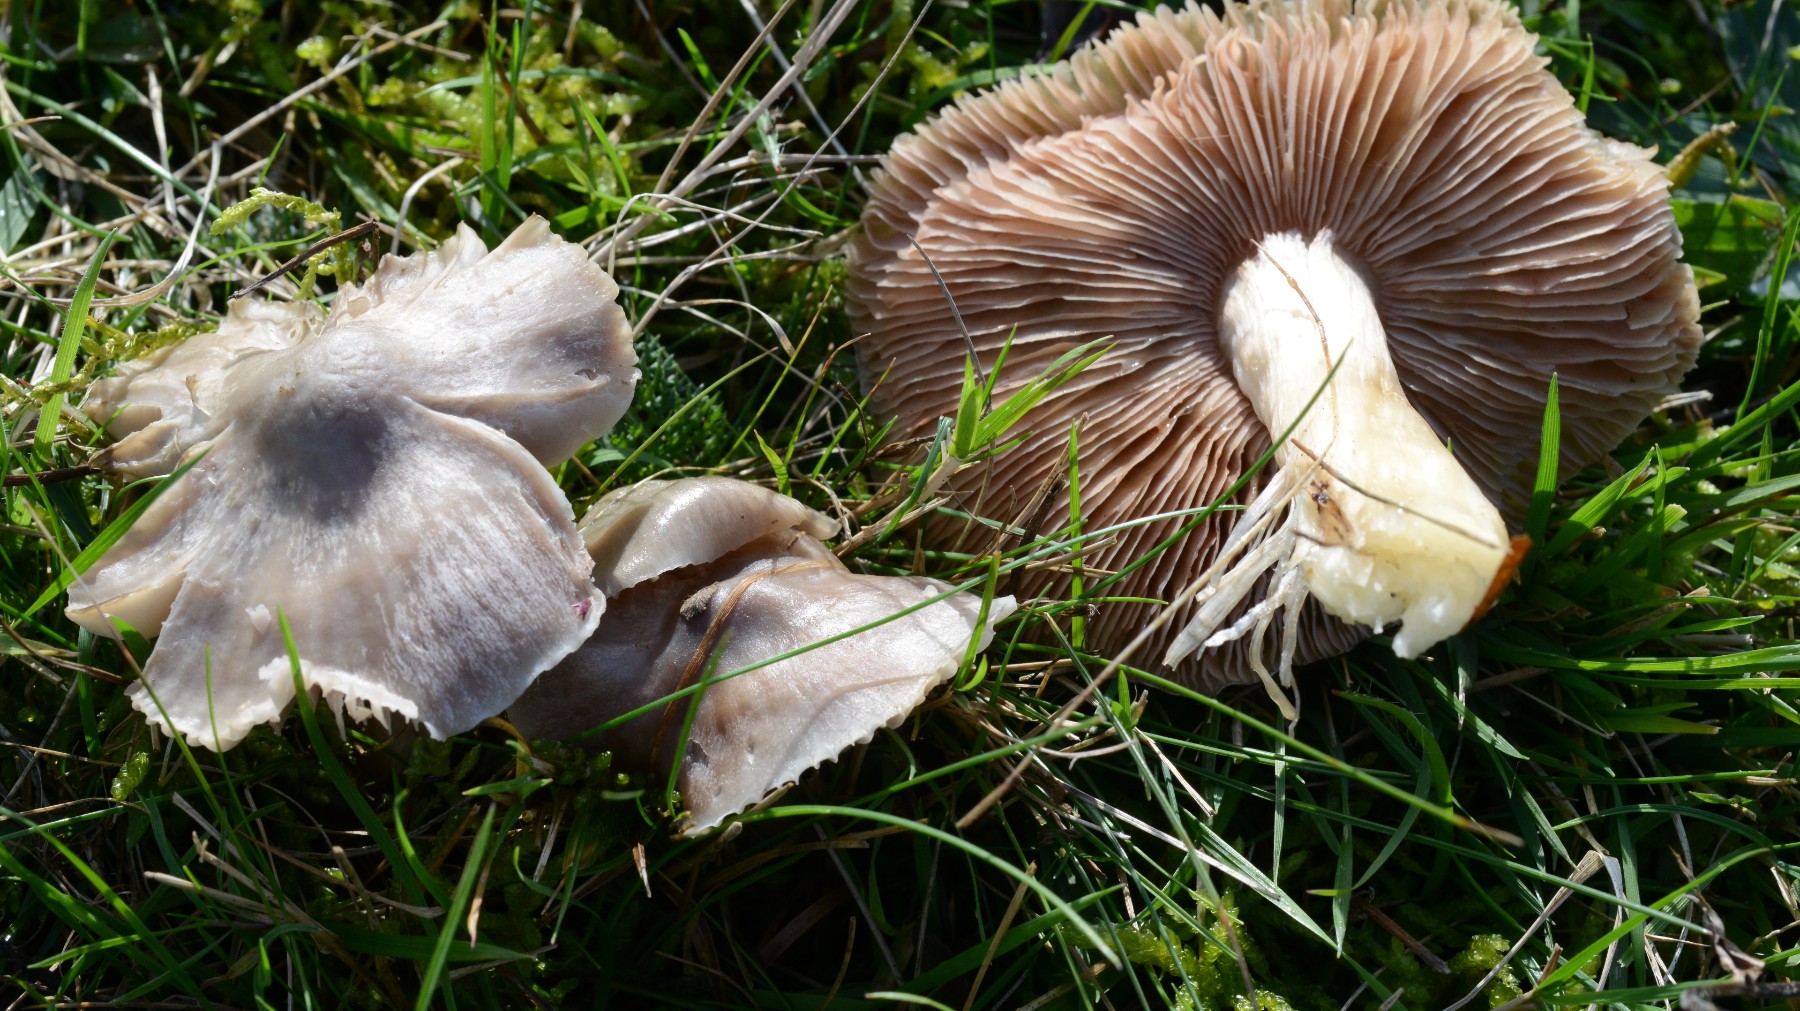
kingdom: Fungi
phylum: Basidiomycota
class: Agaricomycetes
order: Agaricales
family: Entolomataceae
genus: Entoloma
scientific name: Entoloma
